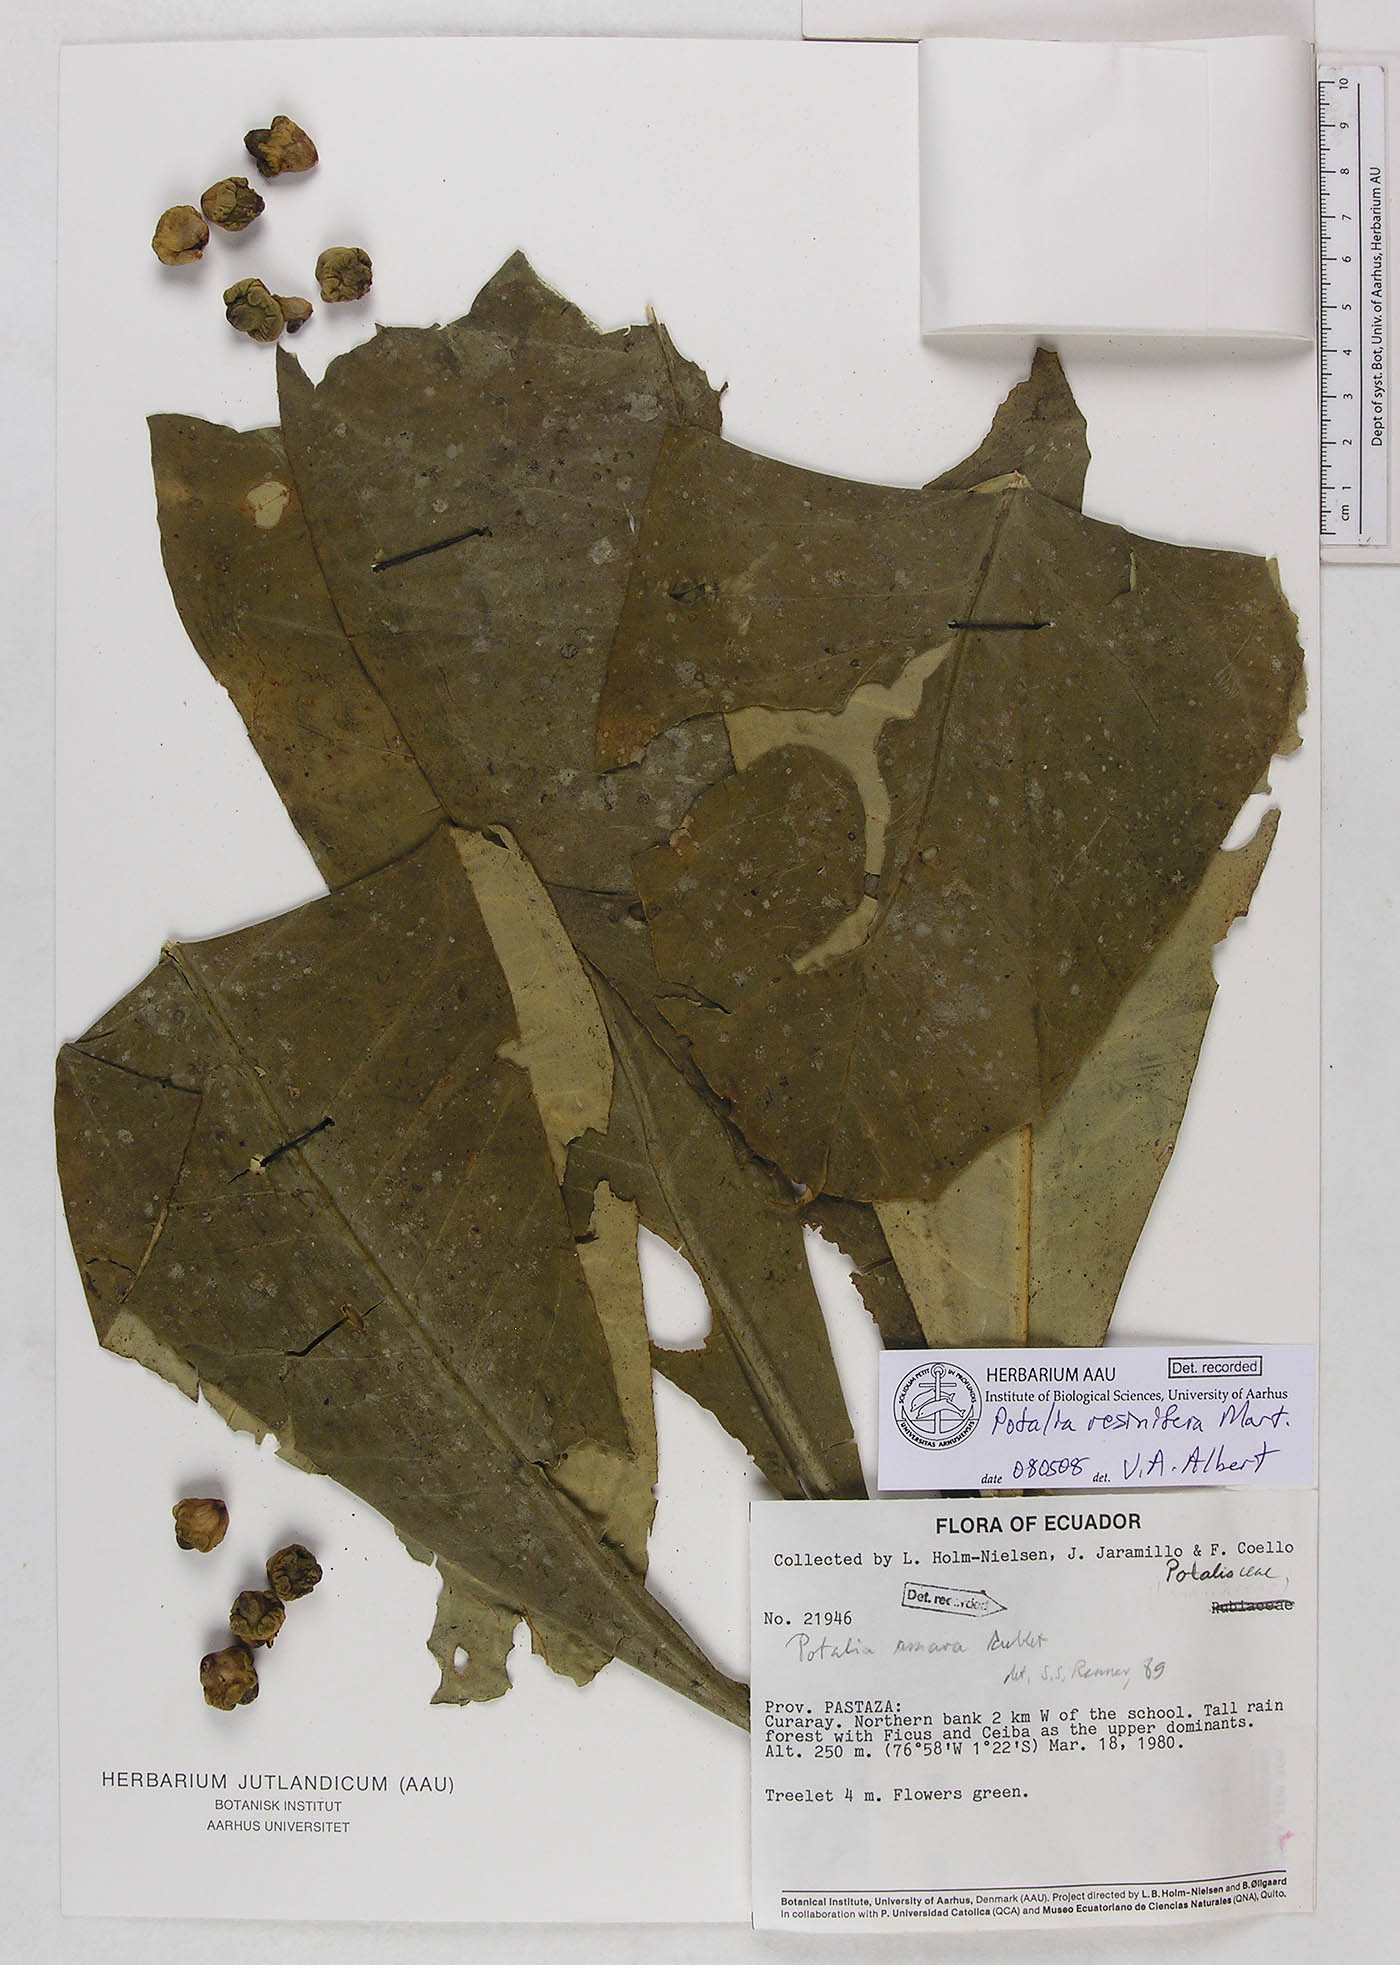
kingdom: Plantae
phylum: Tracheophyta
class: Magnoliopsida
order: Gentianales
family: Gentianaceae
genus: Potalia
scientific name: Potalia resinifera
